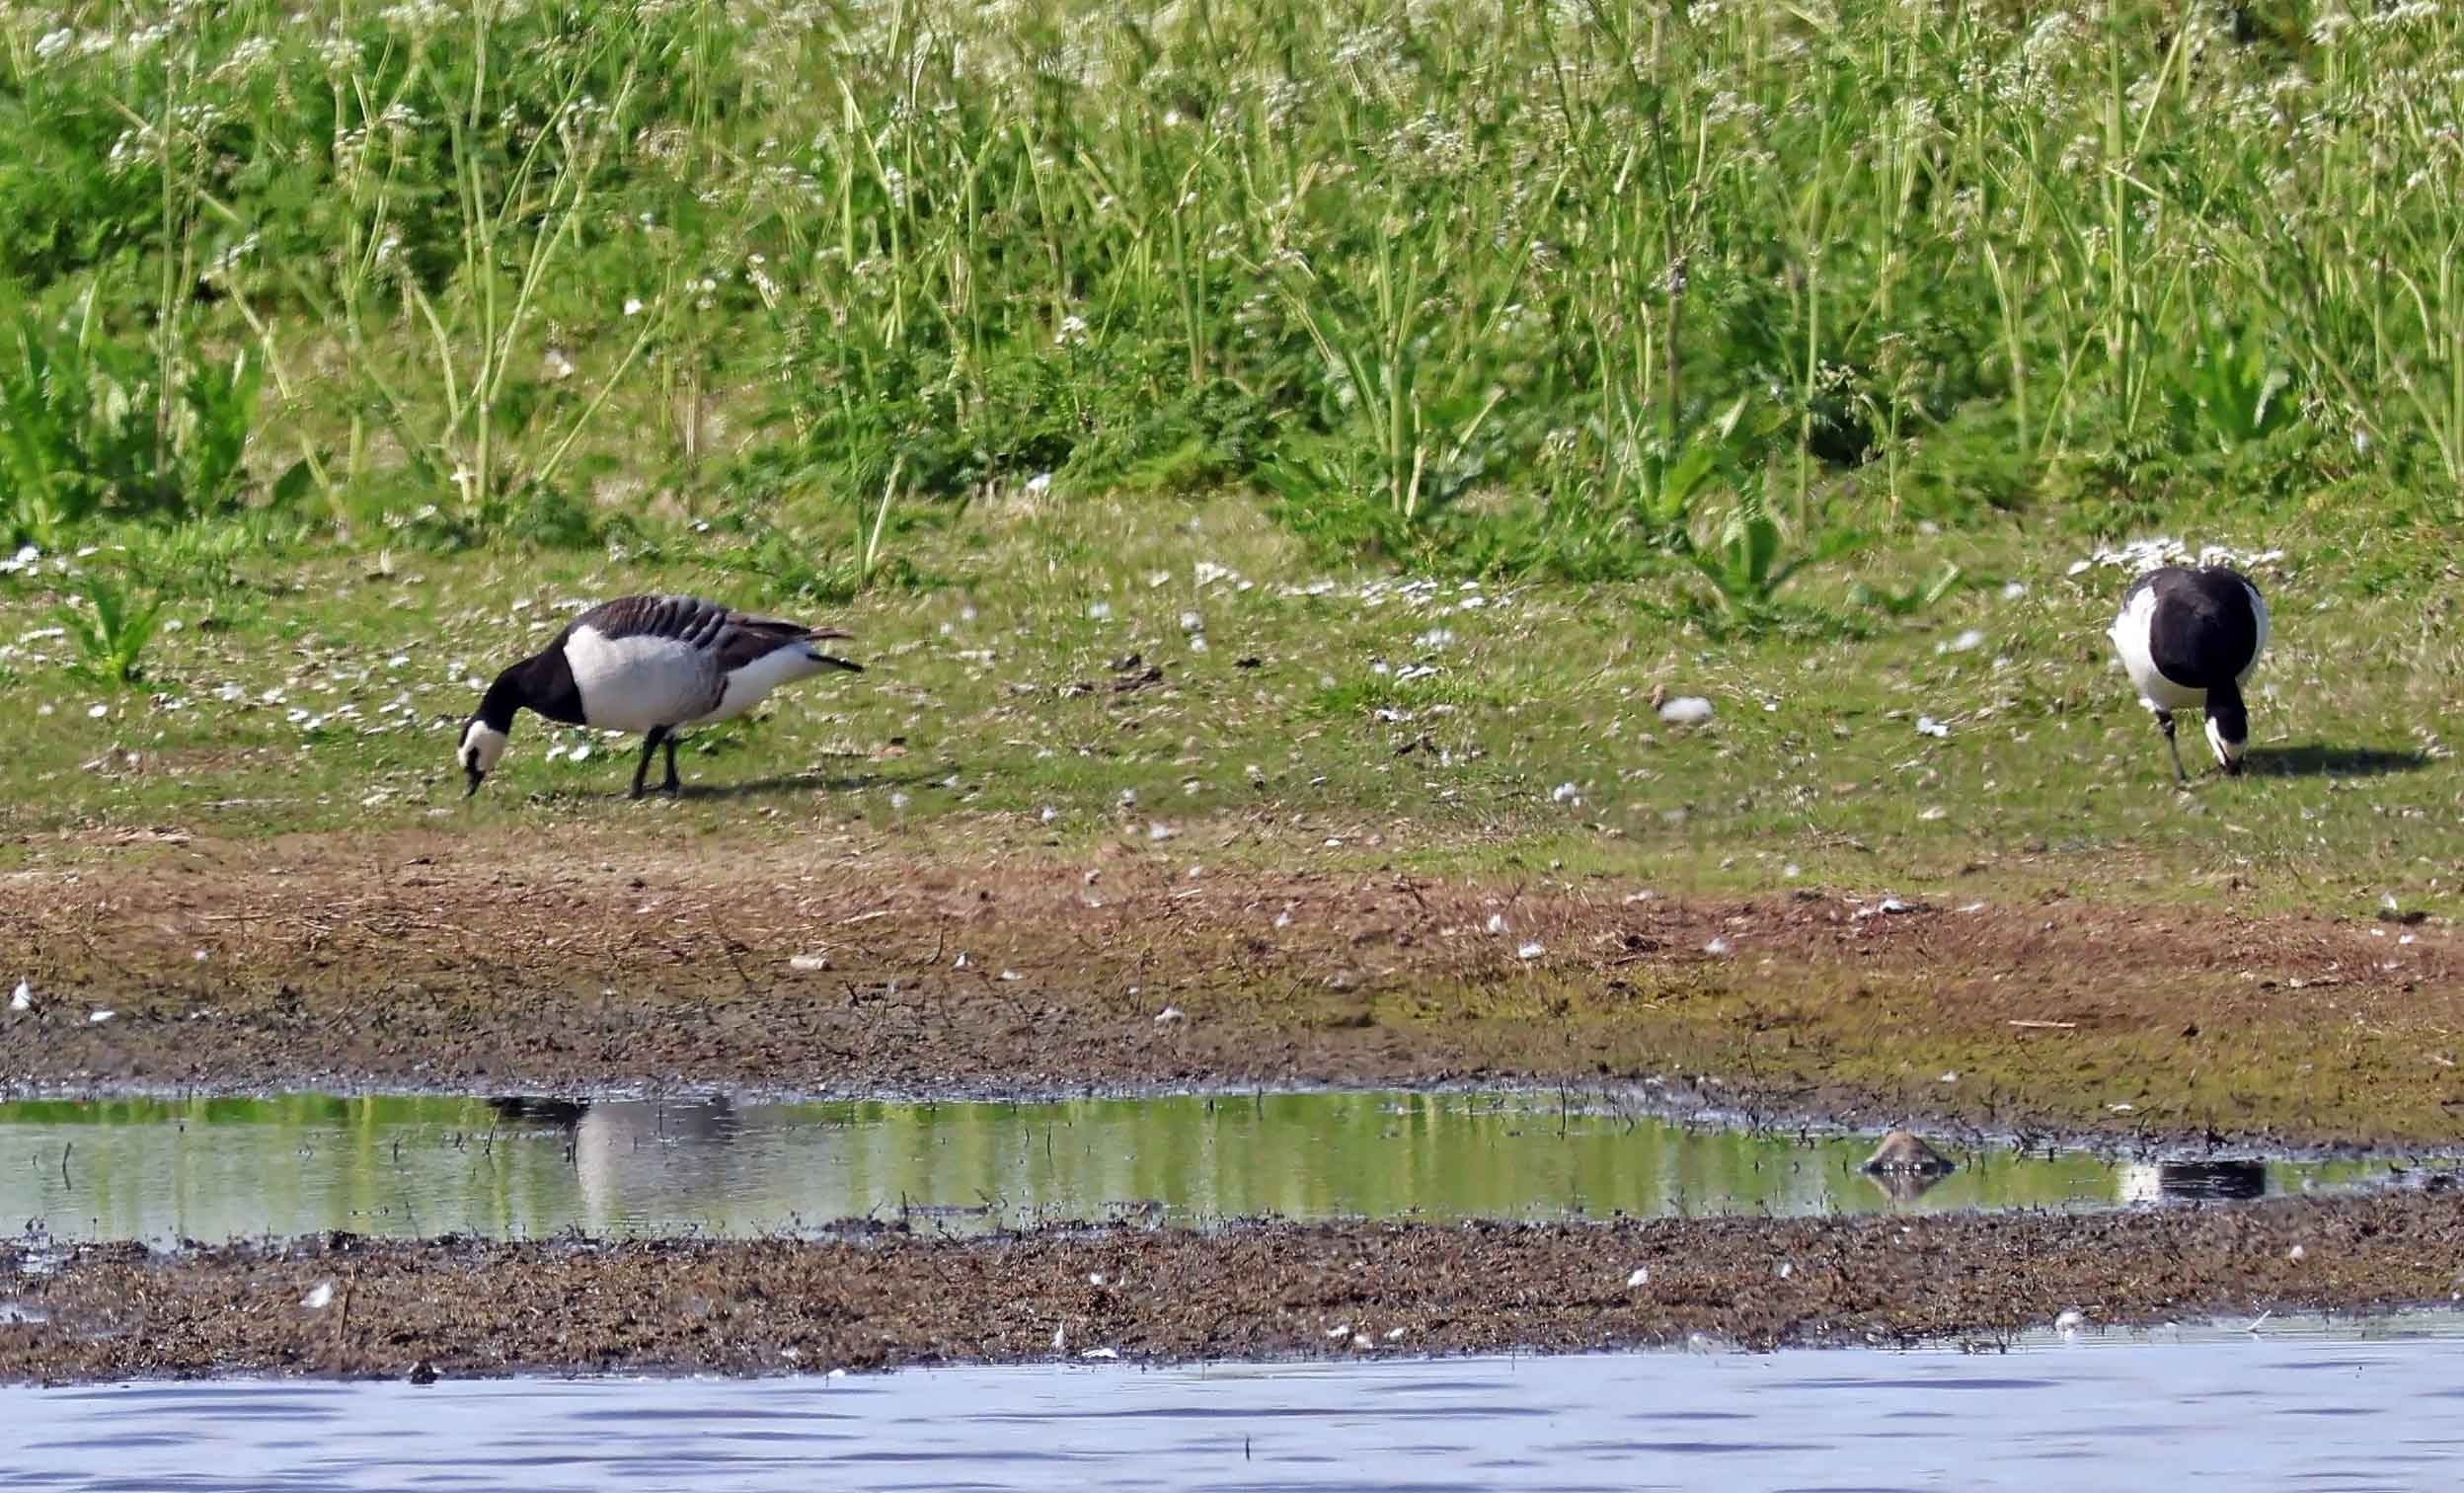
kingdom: Animalia
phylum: Chordata
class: Aves
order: Anseriformes
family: Anatidae
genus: Branta
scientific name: Branta leucopsis
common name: Bramgås
